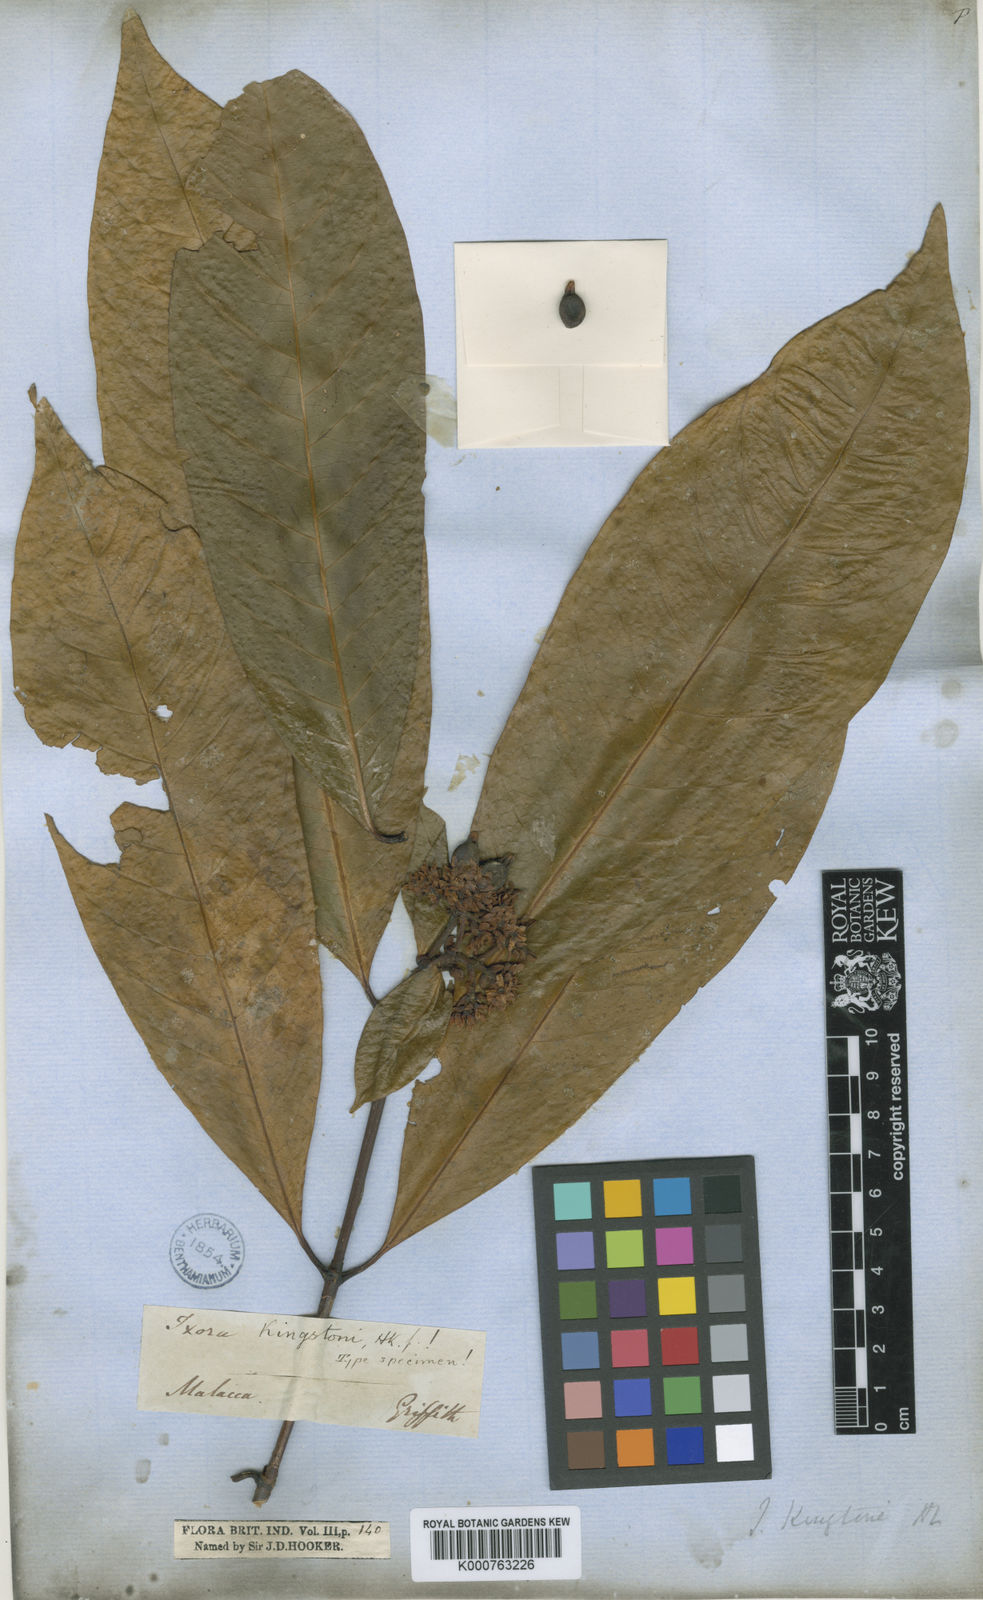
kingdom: Plantae
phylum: Tracheophyta
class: Magnoliopsida
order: Gentianales
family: Rubiaceae
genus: Ixora
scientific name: Ixora kingstoni
